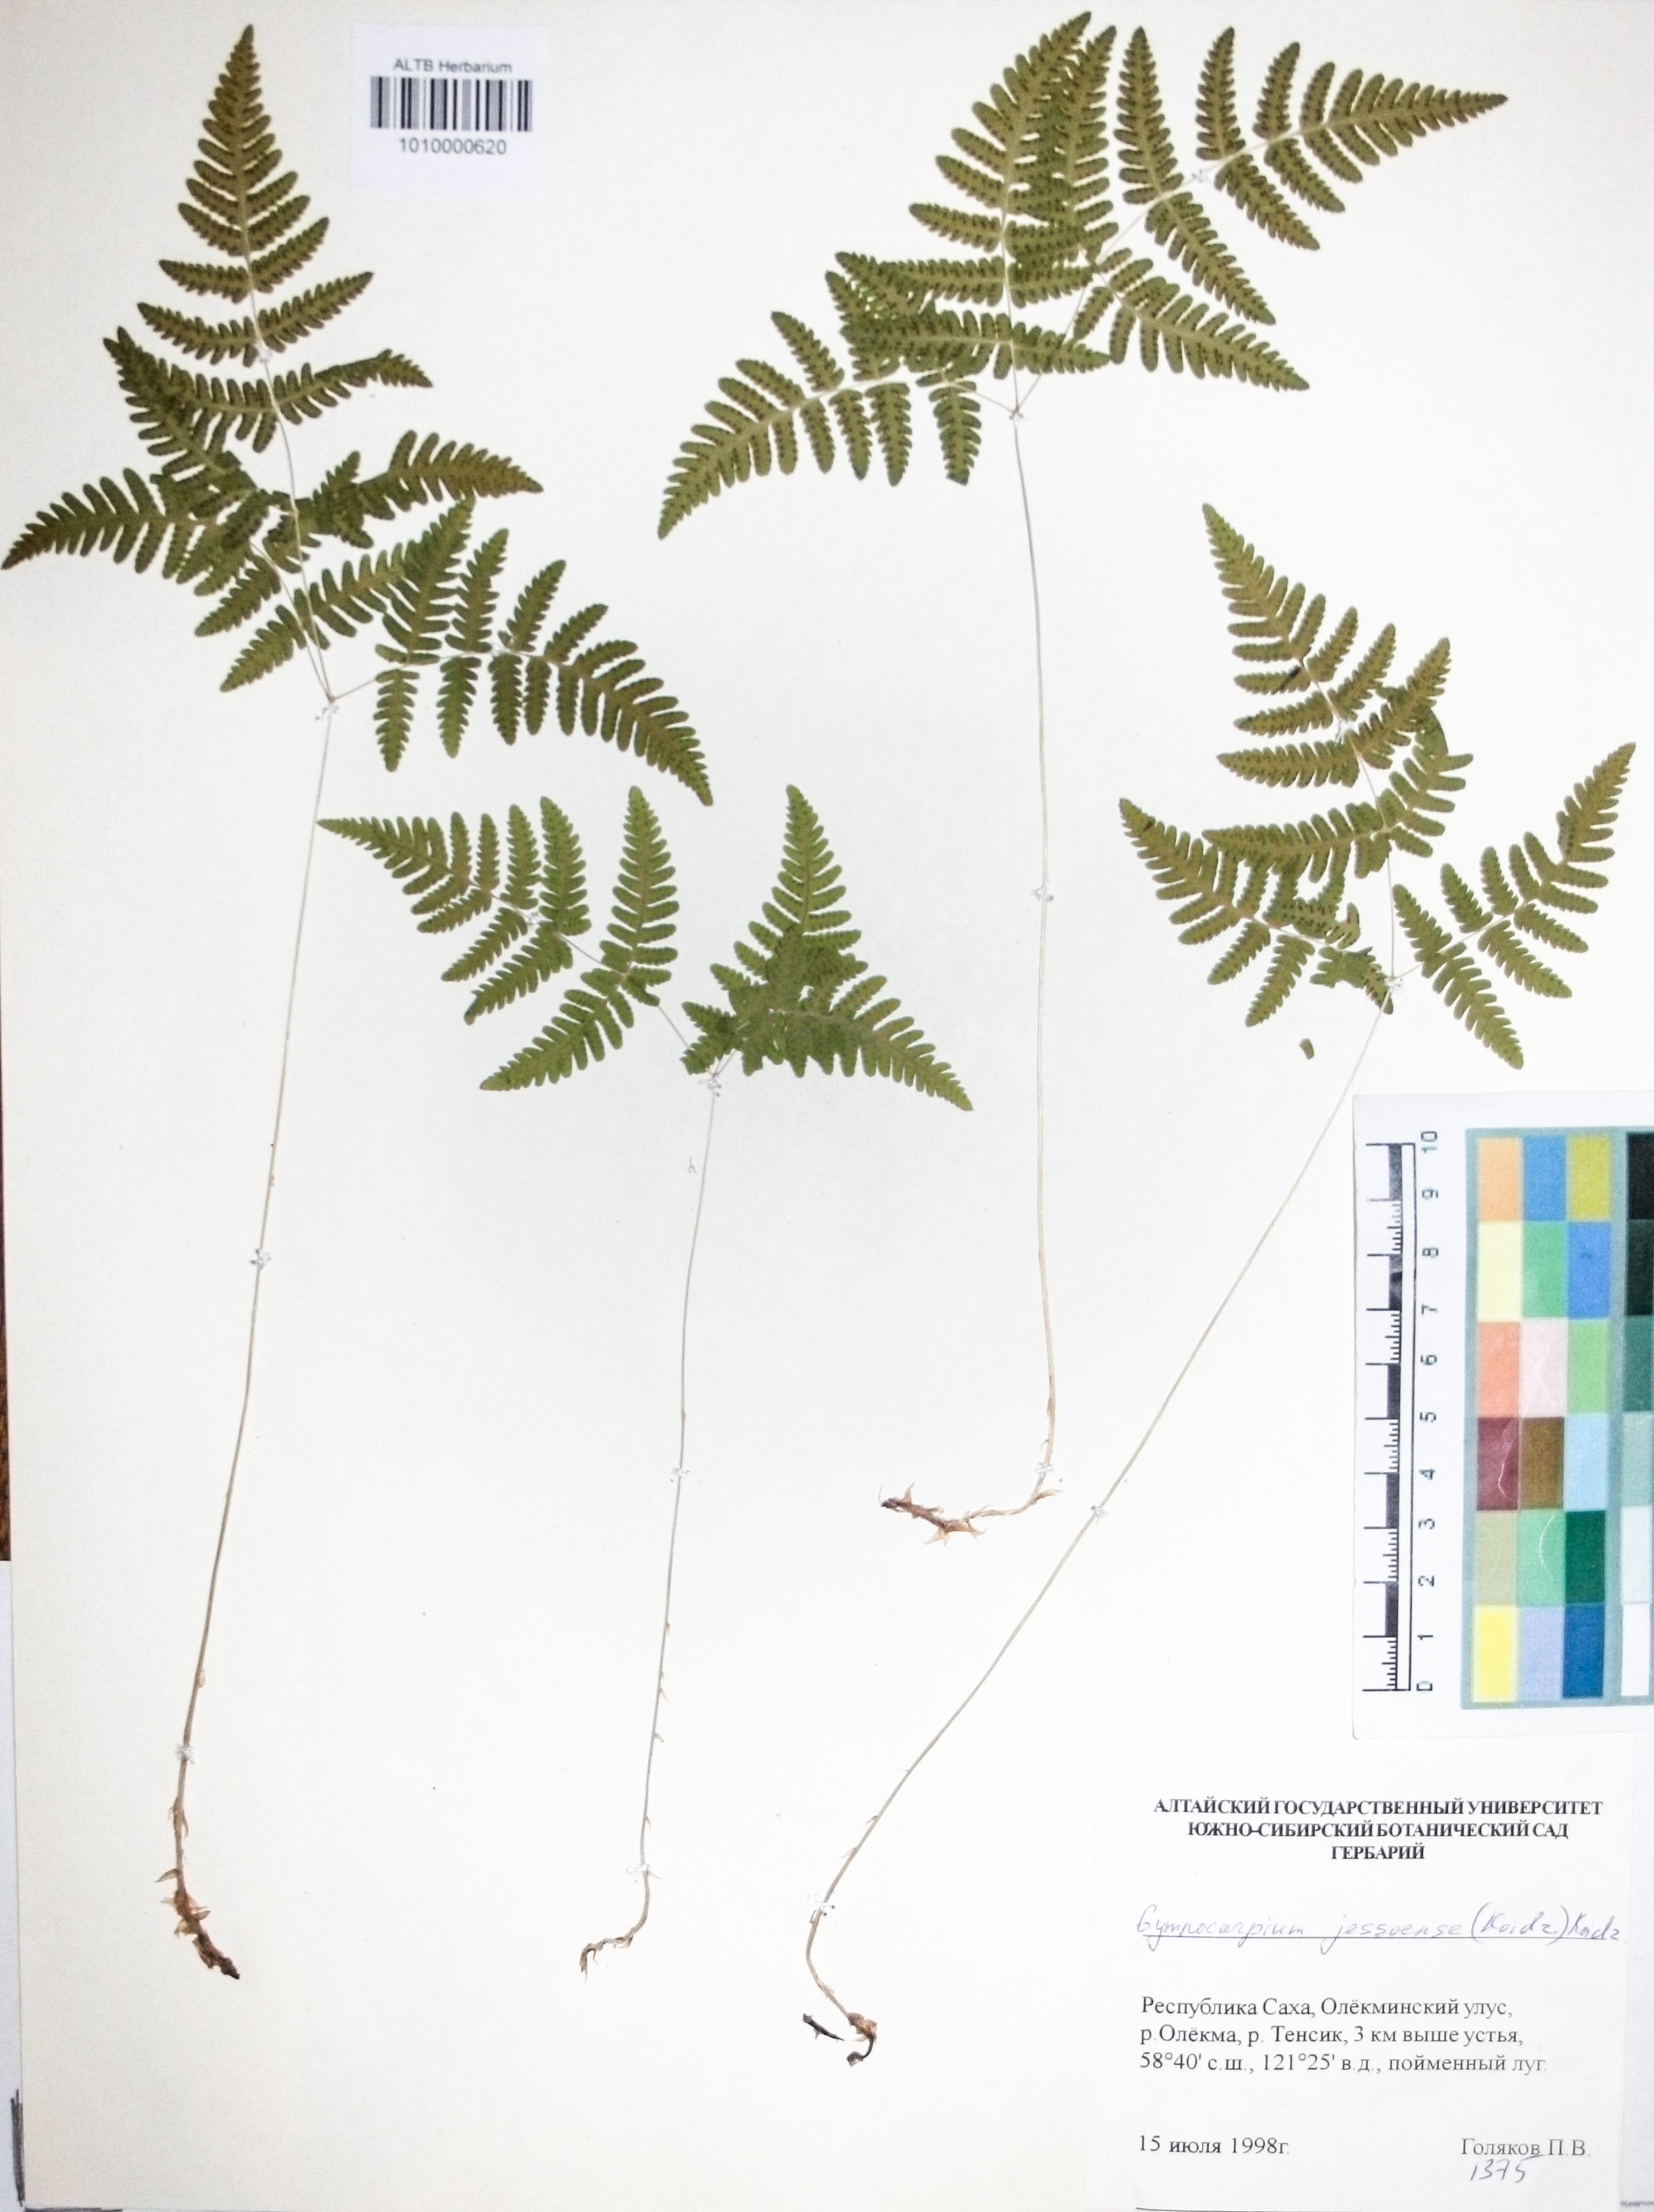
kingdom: Plantae
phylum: Tracheophyta
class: Polypodiopsida
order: Polypodiales
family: Cystopteridaceae
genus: Gymnocarpium
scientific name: Gymnocarpium jessoense
